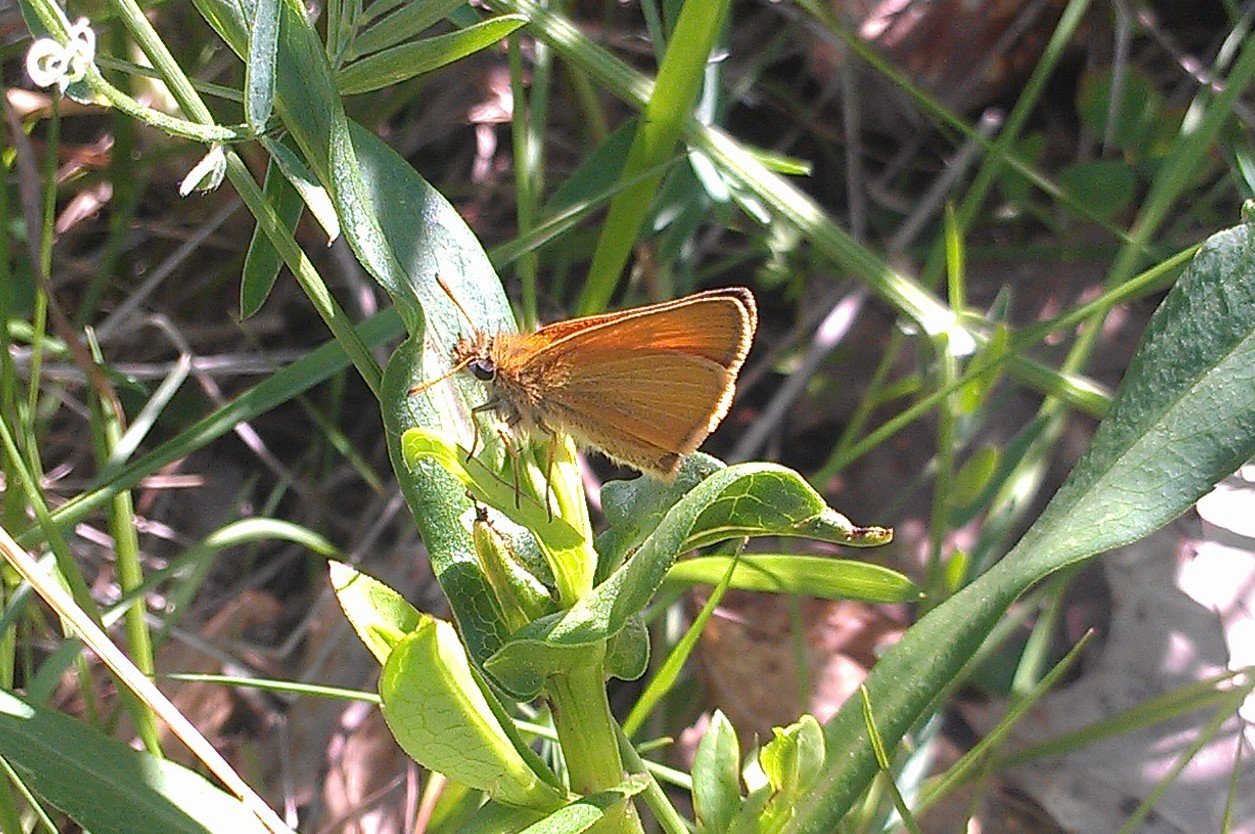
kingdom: Animalia
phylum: Arthropoda
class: Insecta
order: Lepidoptera
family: Hesperiidae
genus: Thymelicus
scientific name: Thymelicus lineola
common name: European Skipper
